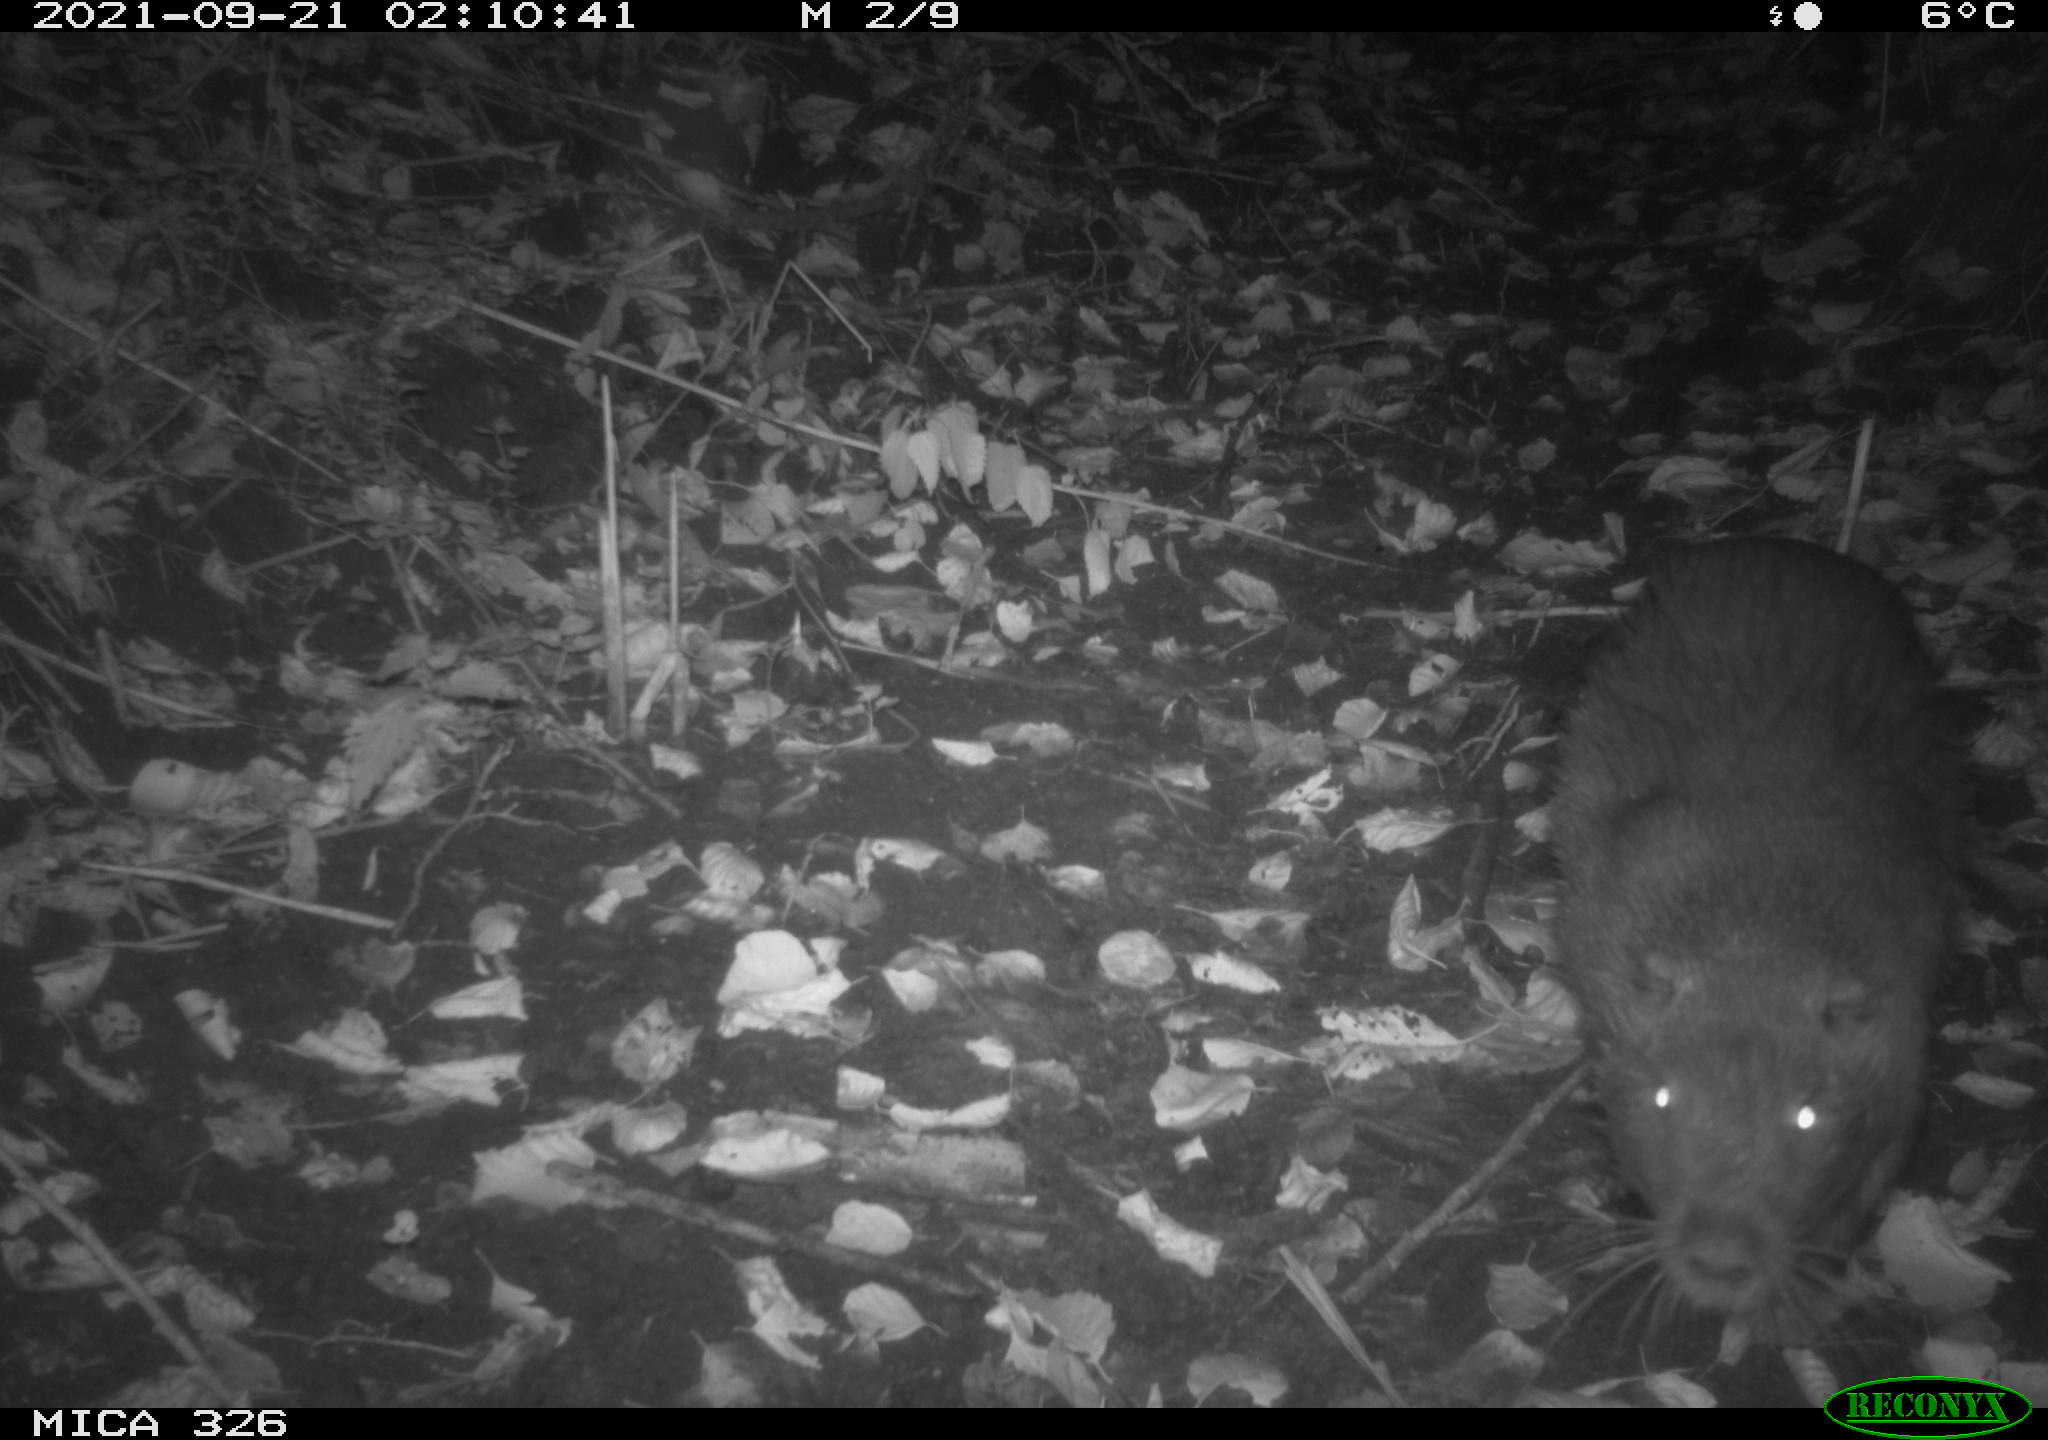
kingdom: Animalia
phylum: Chordata
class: Mammalia
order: Rodentia
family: Myocastoridae
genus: Myocastor
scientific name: Myocastor coypus
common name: Coypu
